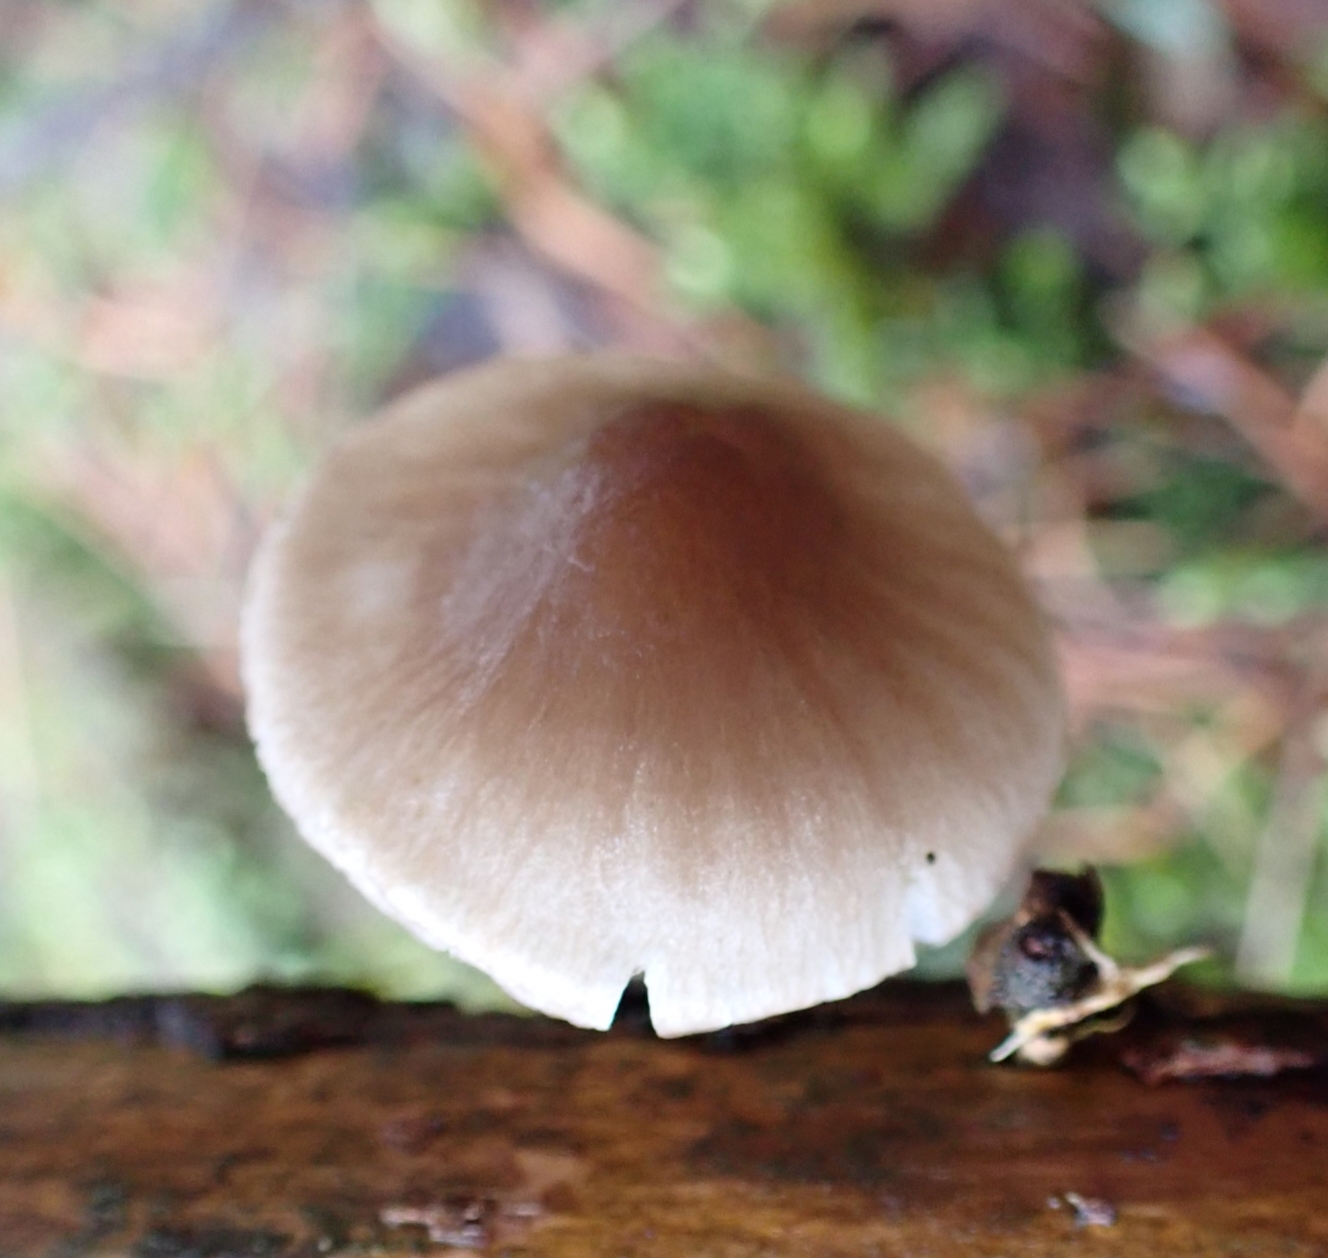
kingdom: Fungi
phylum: Basidiomycota
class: Agaricomycetes
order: Agaricales
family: Mycenaceae
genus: Mycena
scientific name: Mycena rubromarginata
